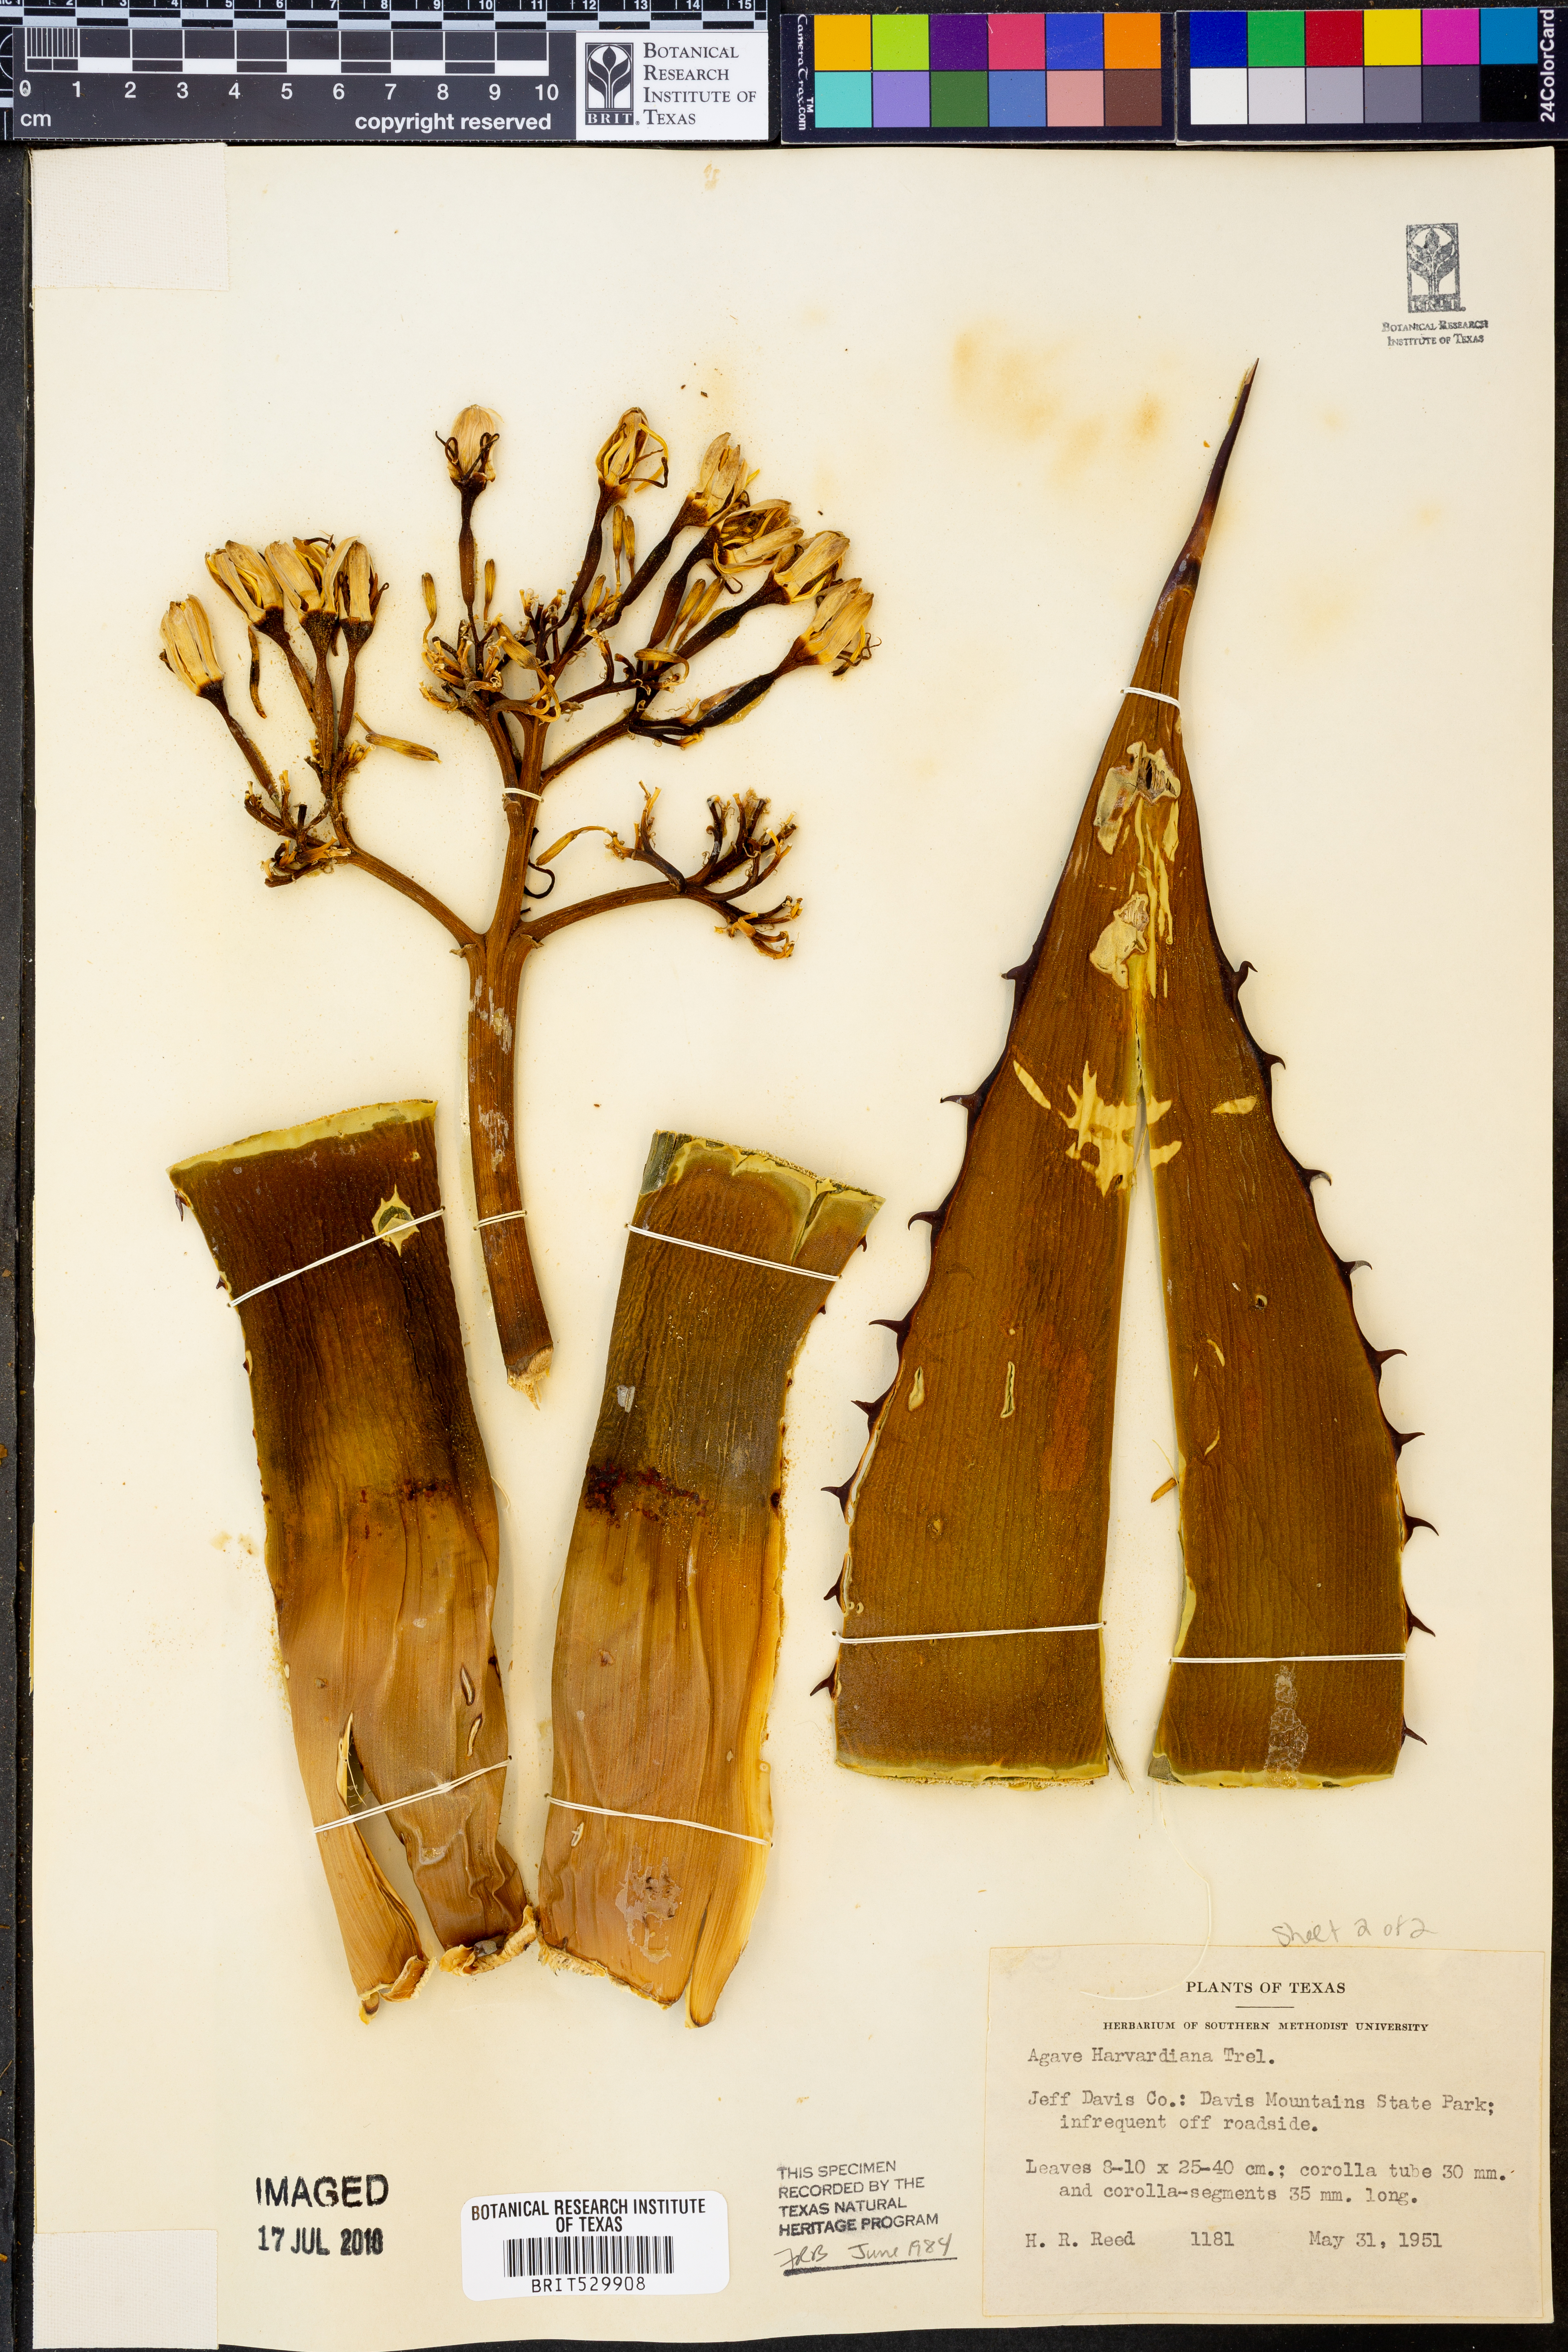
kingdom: Plantae
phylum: Tracheophyta
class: Liliopsida
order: Asparagales
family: Asparagaceae
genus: Agave
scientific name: Agave havardiana
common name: Havard agave
